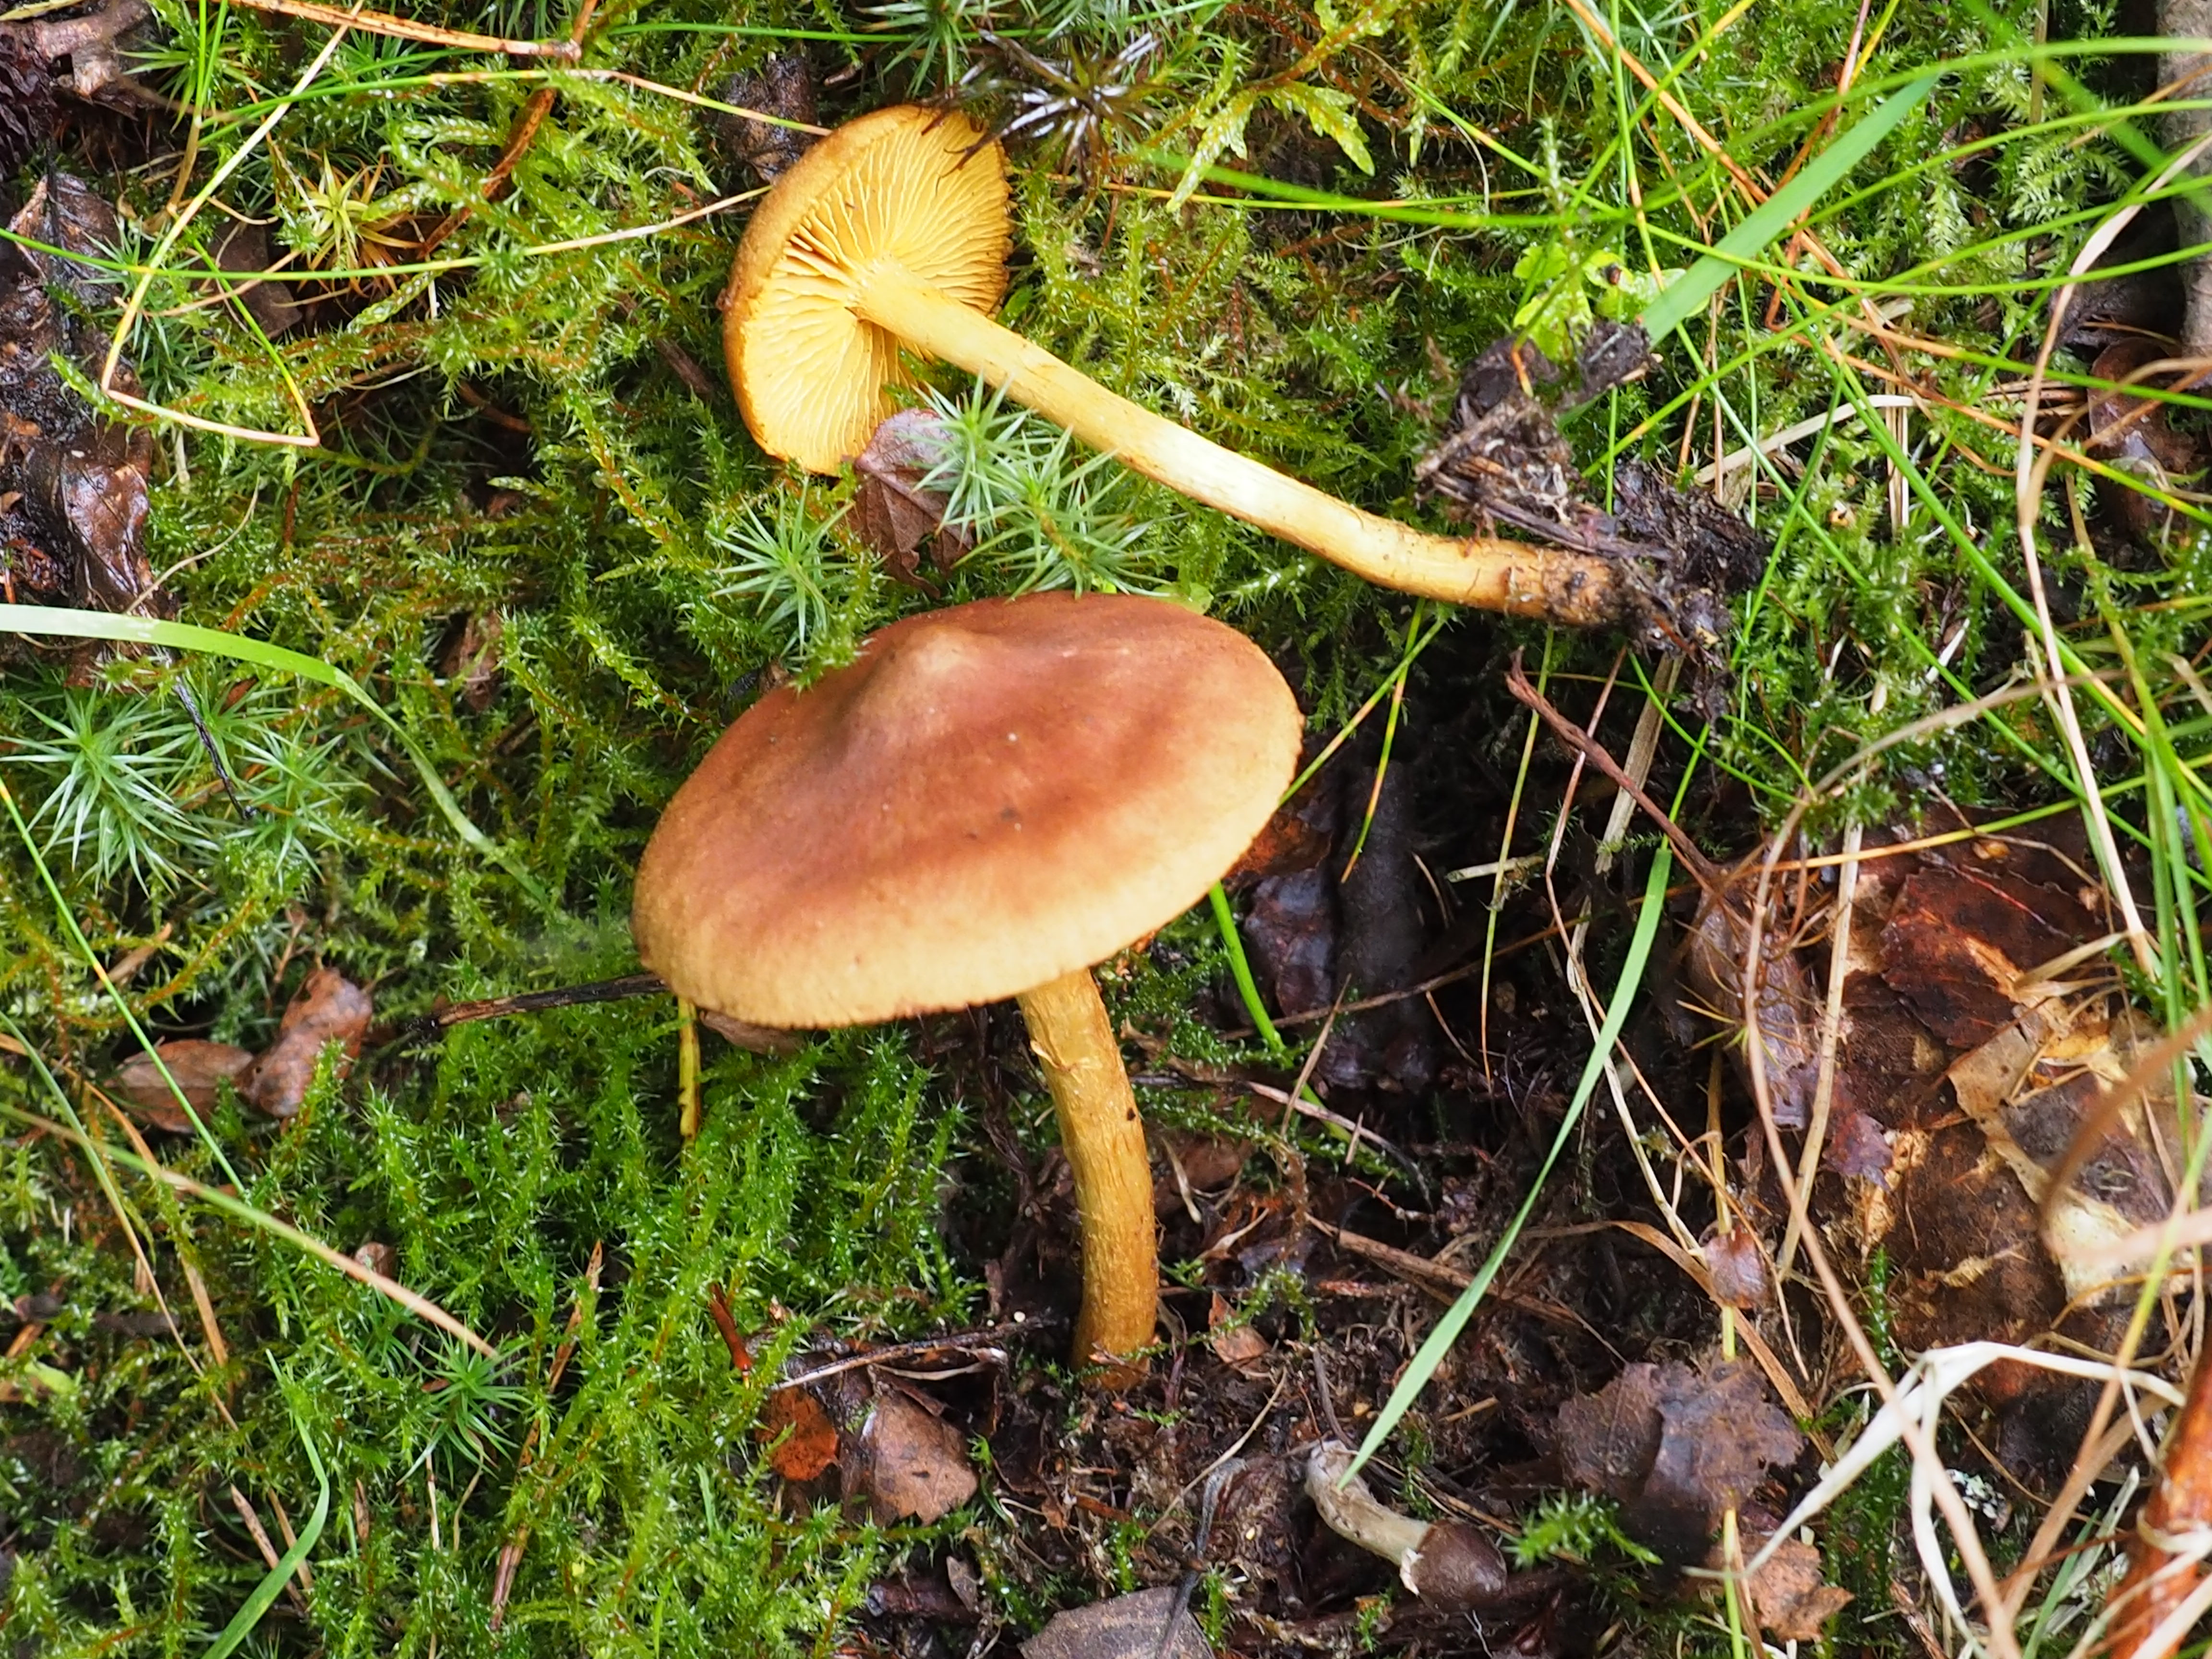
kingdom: Fungi
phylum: Basidiomycota
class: Agaricomycetes
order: Agaricales
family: Cortinariaceae
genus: Cortinarius
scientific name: Cortinarius croceus
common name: Saffron webcap
